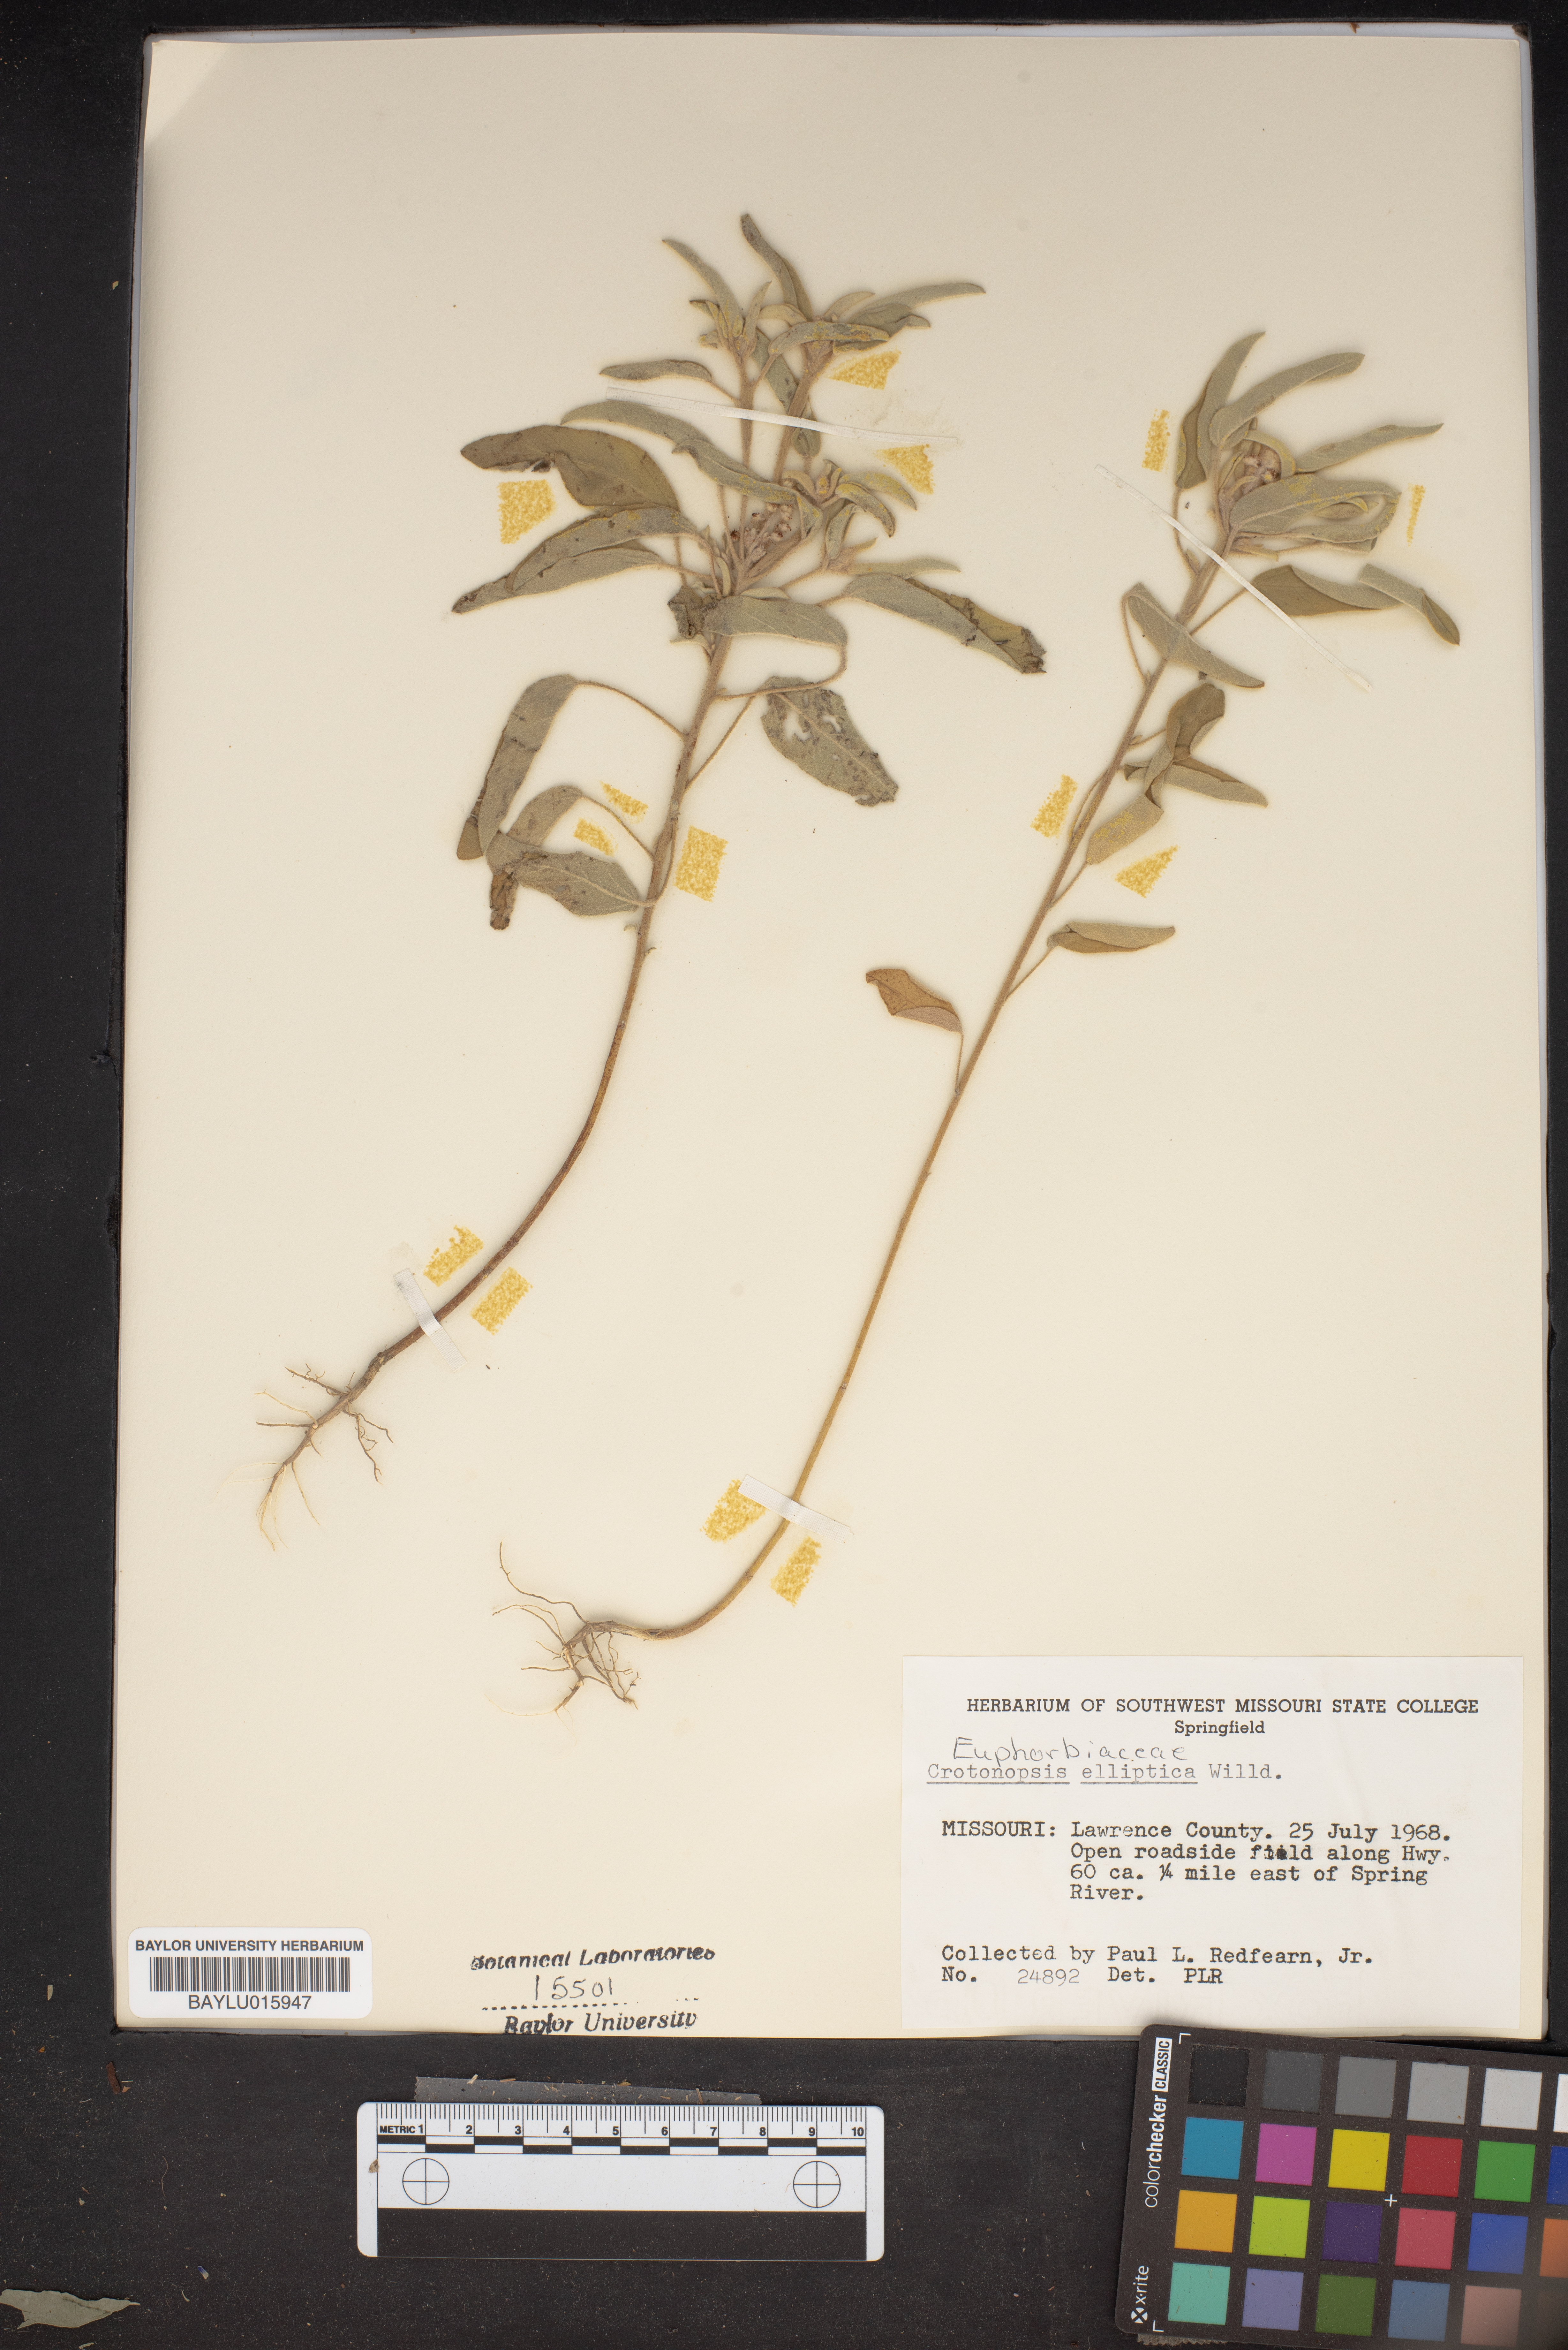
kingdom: Plantae
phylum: Tracheophyta
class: Magnoliopsida
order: Malpighiales
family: Euphorbiaceae
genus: Croton
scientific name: Croton michauxii
